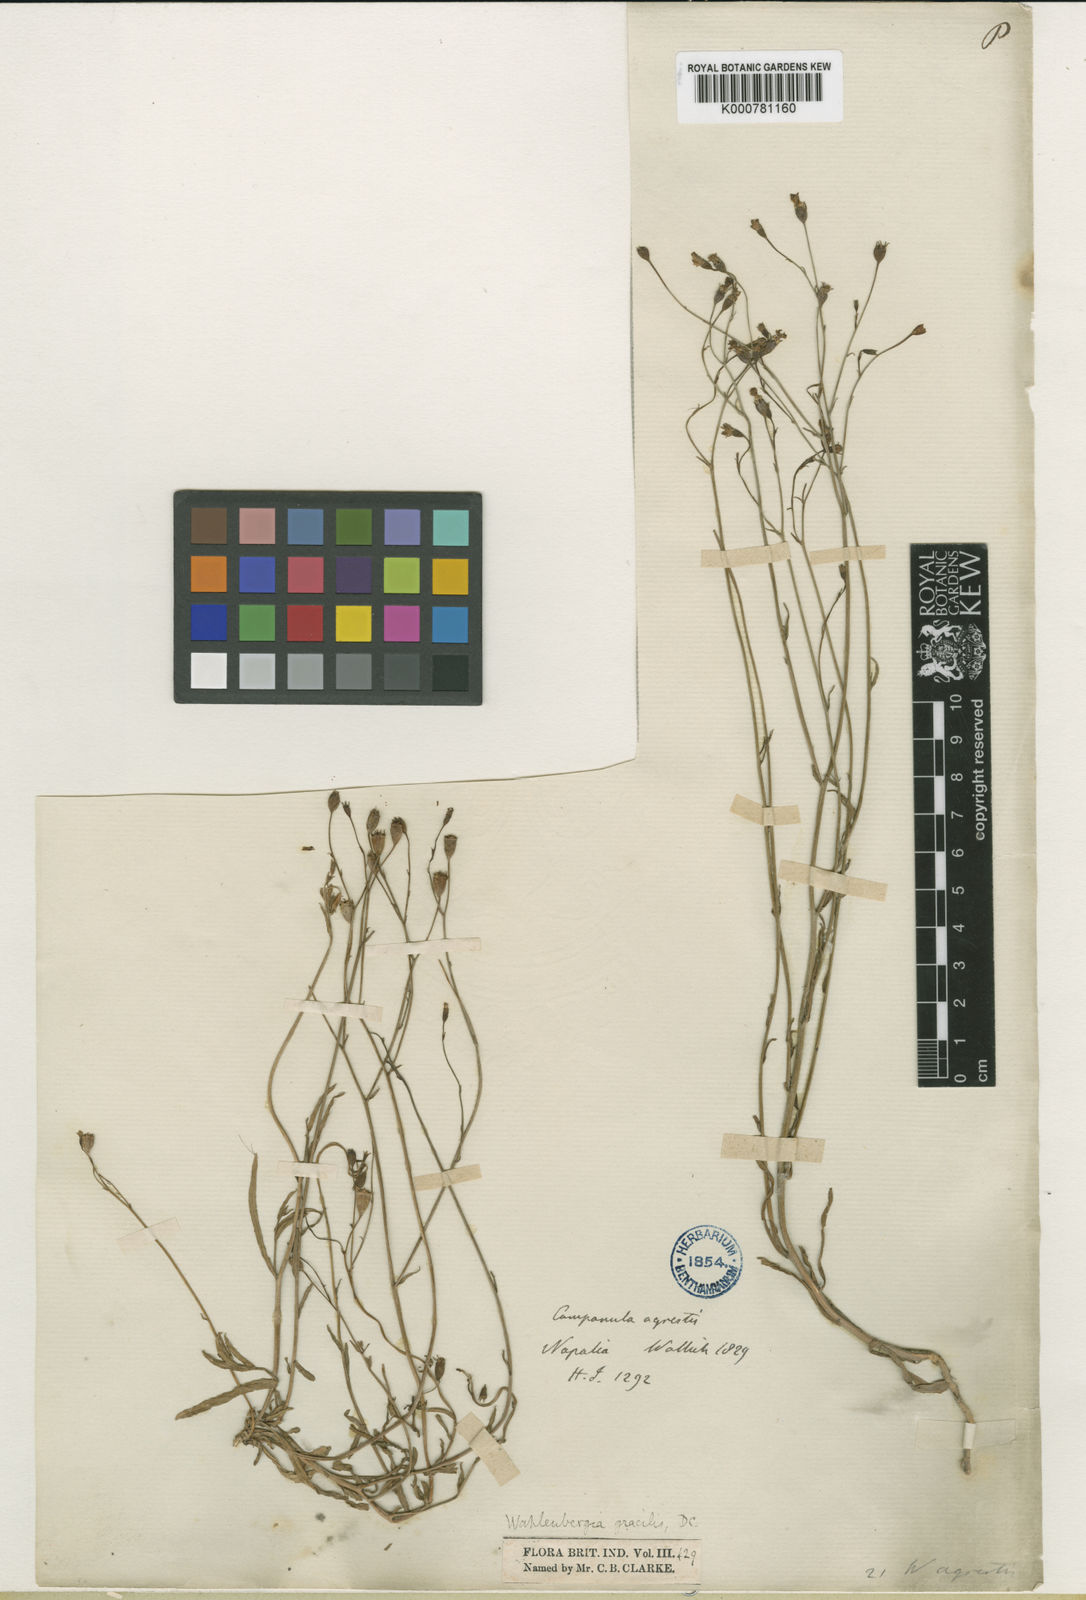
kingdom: Plantae
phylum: Tracheophyta
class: Magnoliopsida
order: Asterales
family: Campanulaceae
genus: Wahlenbergia
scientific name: Wahlenbergia marginata
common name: Southern rockbell
